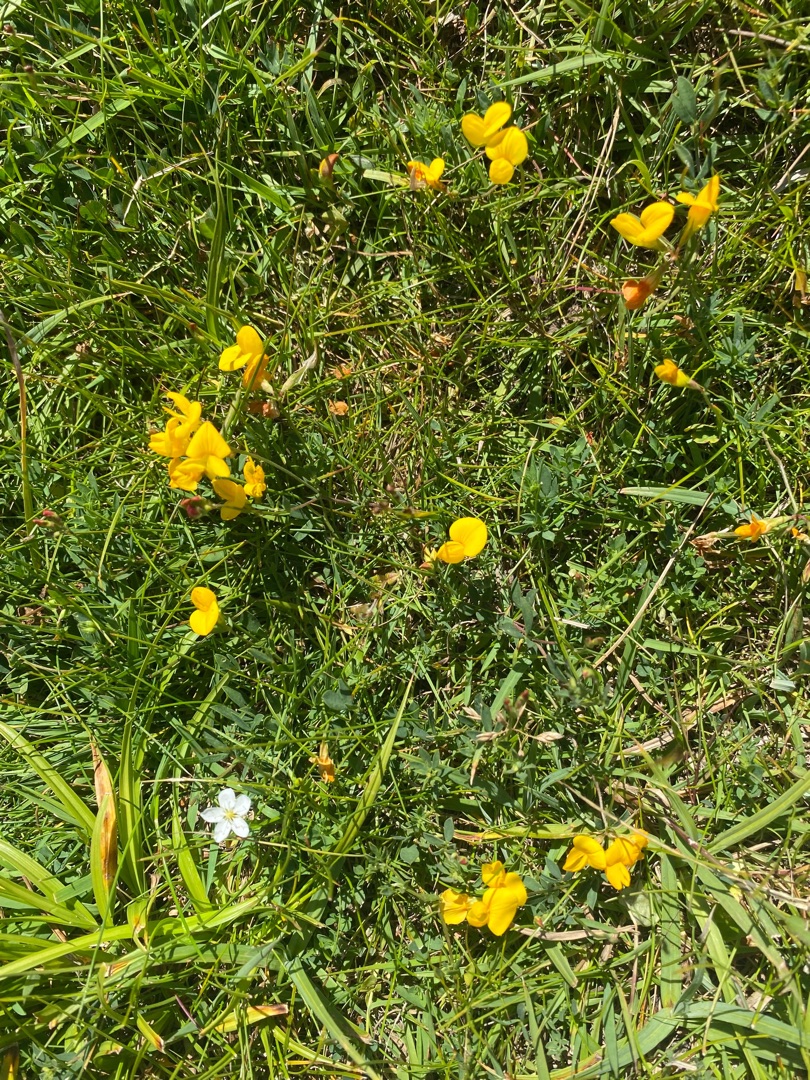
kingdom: Plantae
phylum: Tracheophyta
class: Magnoliopsida
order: Caryophyllales
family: Caryophyllaceae
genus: Sagina
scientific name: Sagina nodosa
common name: Knude-firling
